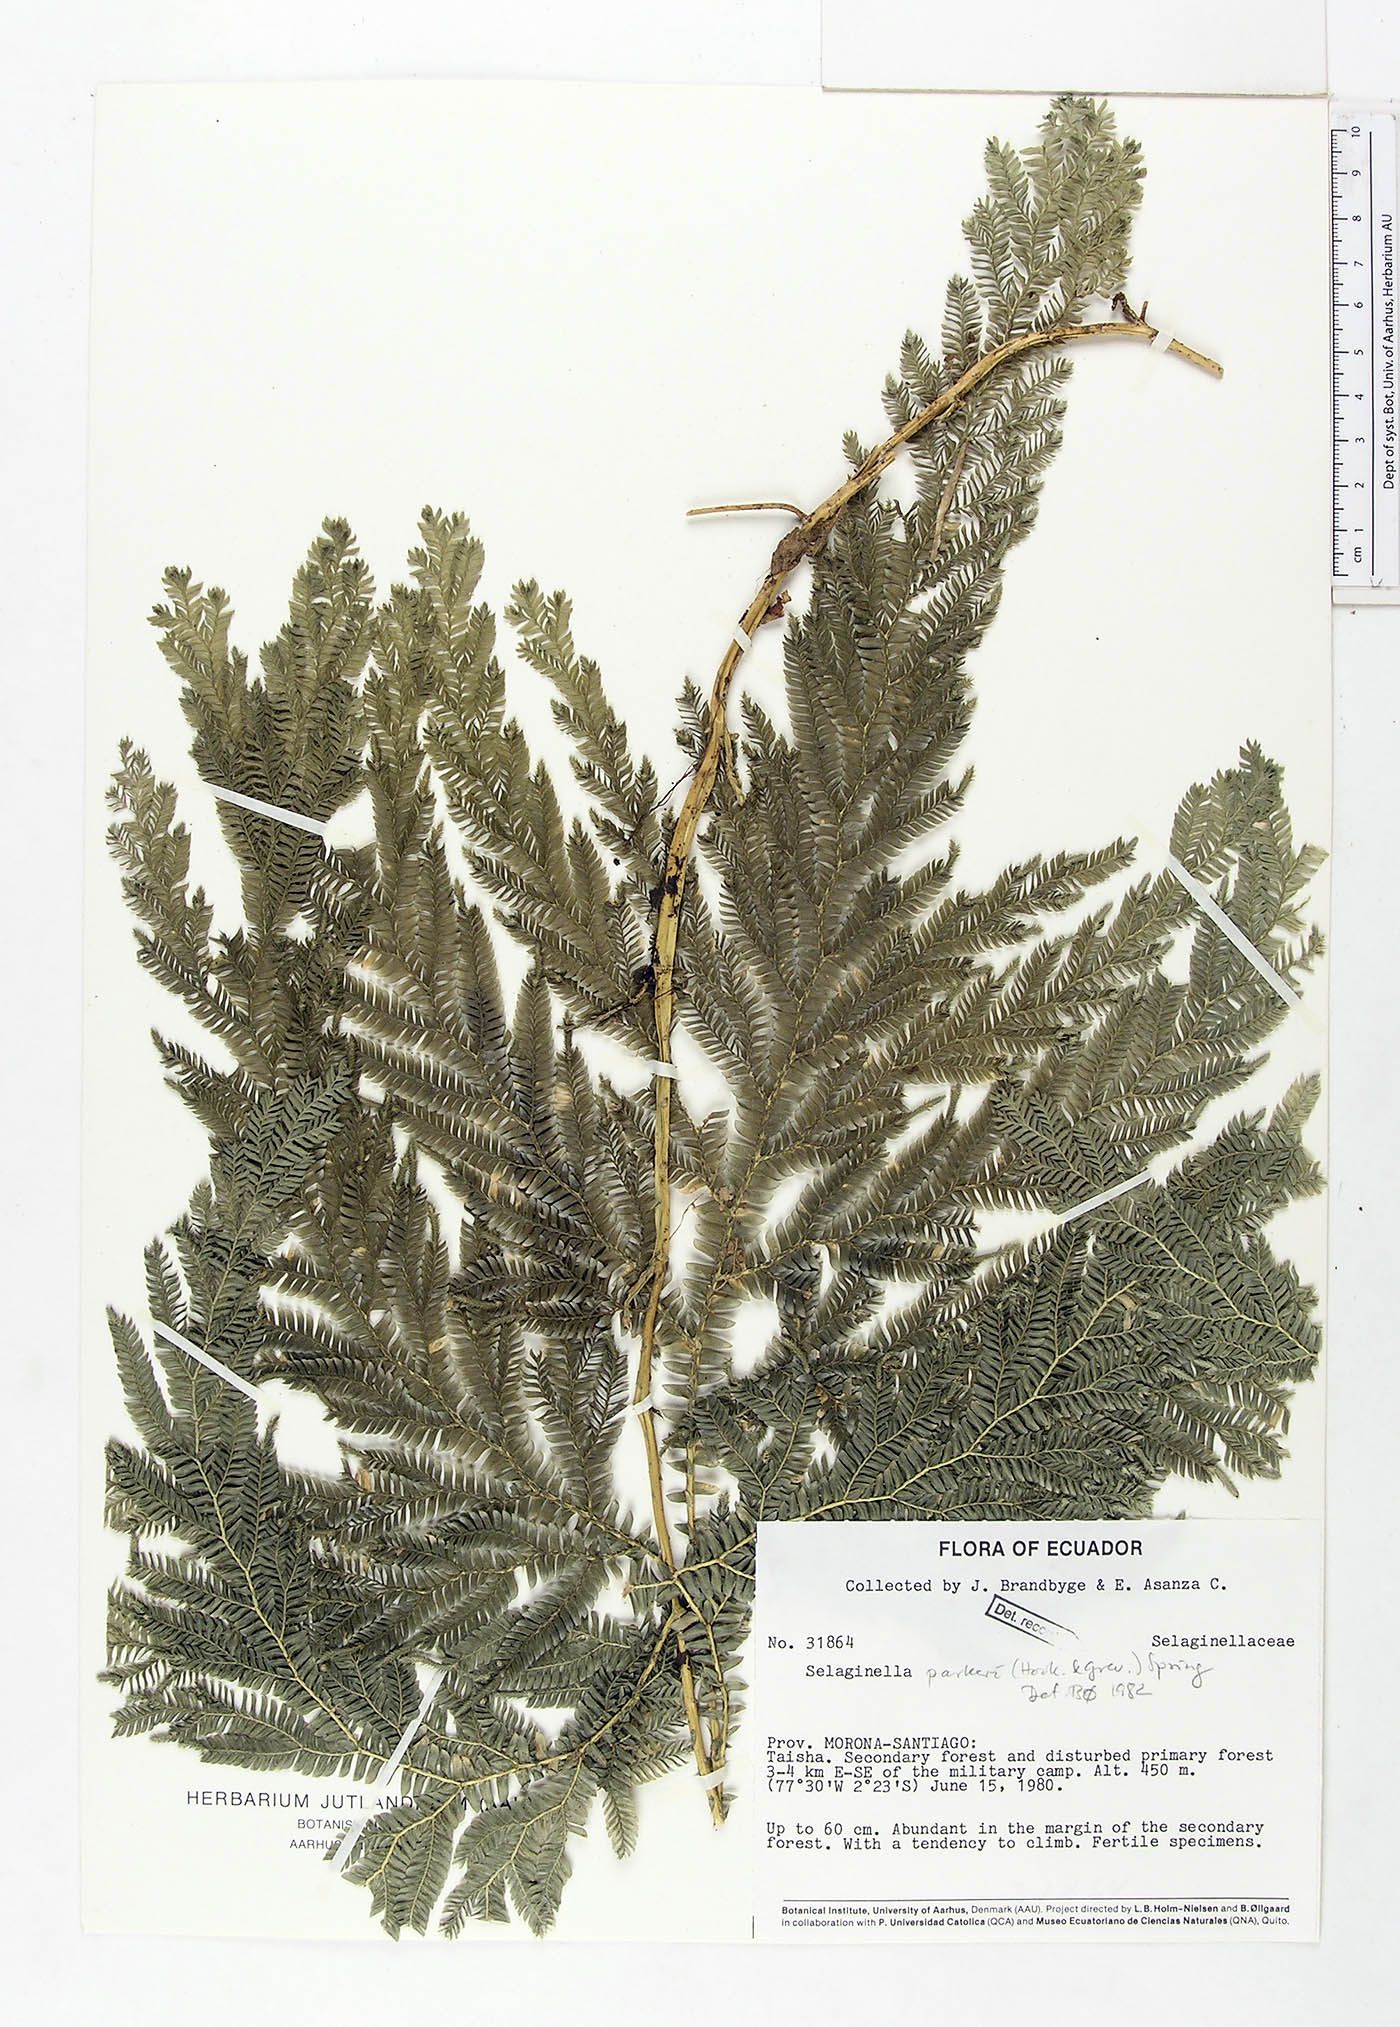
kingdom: Plantae
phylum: Tracheophyta
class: Lycopodiopsida
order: Selaginellales
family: Selaginellaceae
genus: Selaginella
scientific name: Selaginella parkeri
